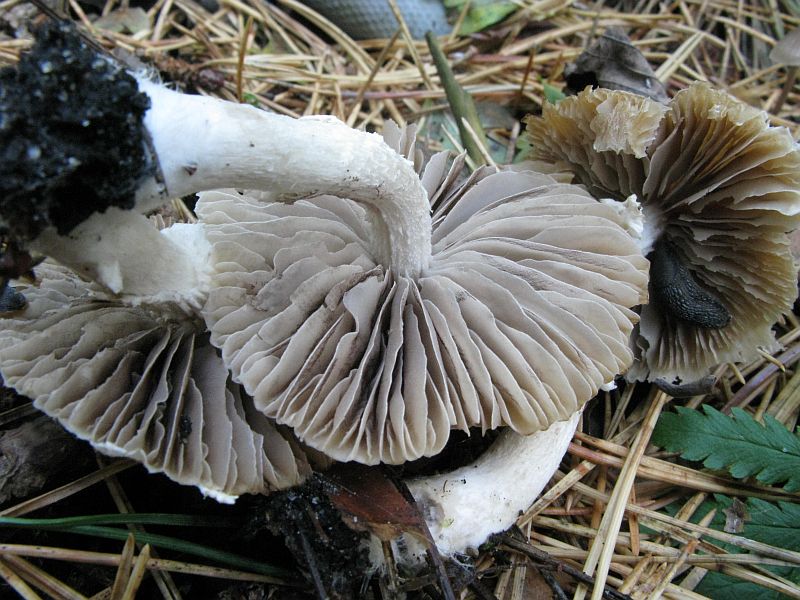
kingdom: Fungi
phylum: Basidiomycota
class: Agaricomycetes
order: Agaricales
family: Psathyrellaceae
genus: Psathyrella
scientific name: Psathyrella rostellata
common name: næbbet mørkhat
